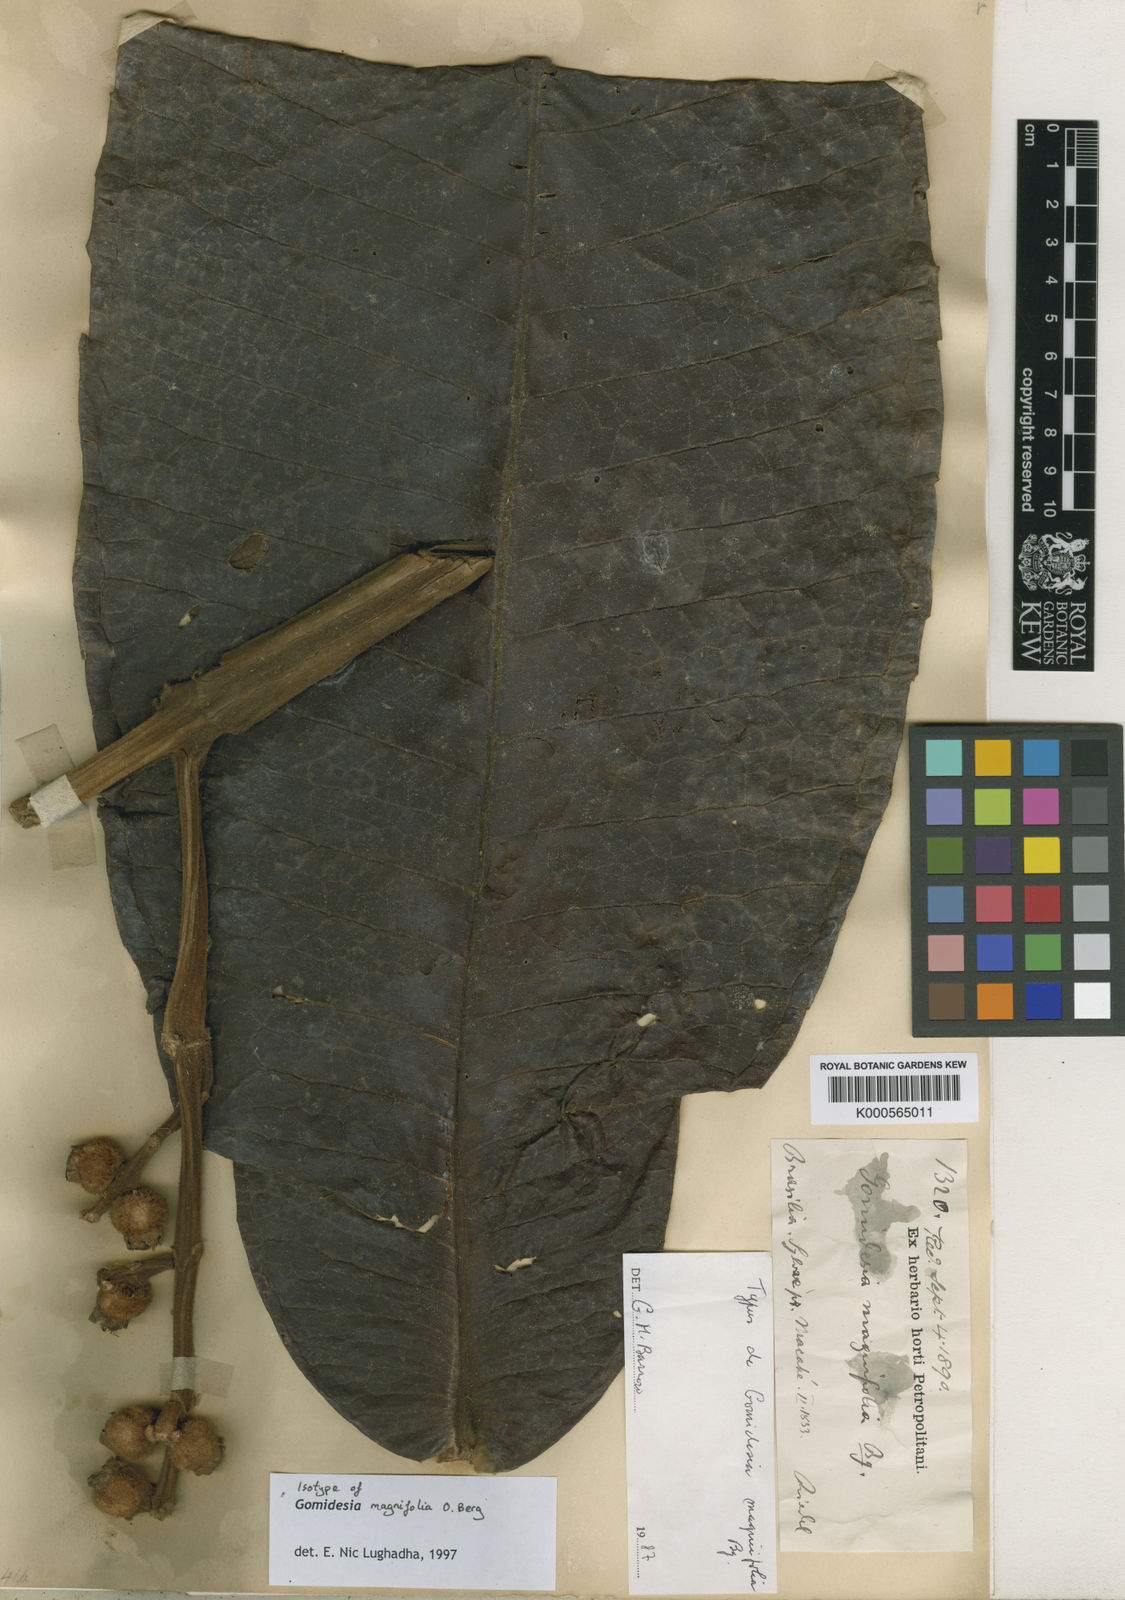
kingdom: Plantae
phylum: Tracheophyta
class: Magnoliopsida
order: Myrtales
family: Myrtaceae
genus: Myrcia
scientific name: Myrcia magnifolia
